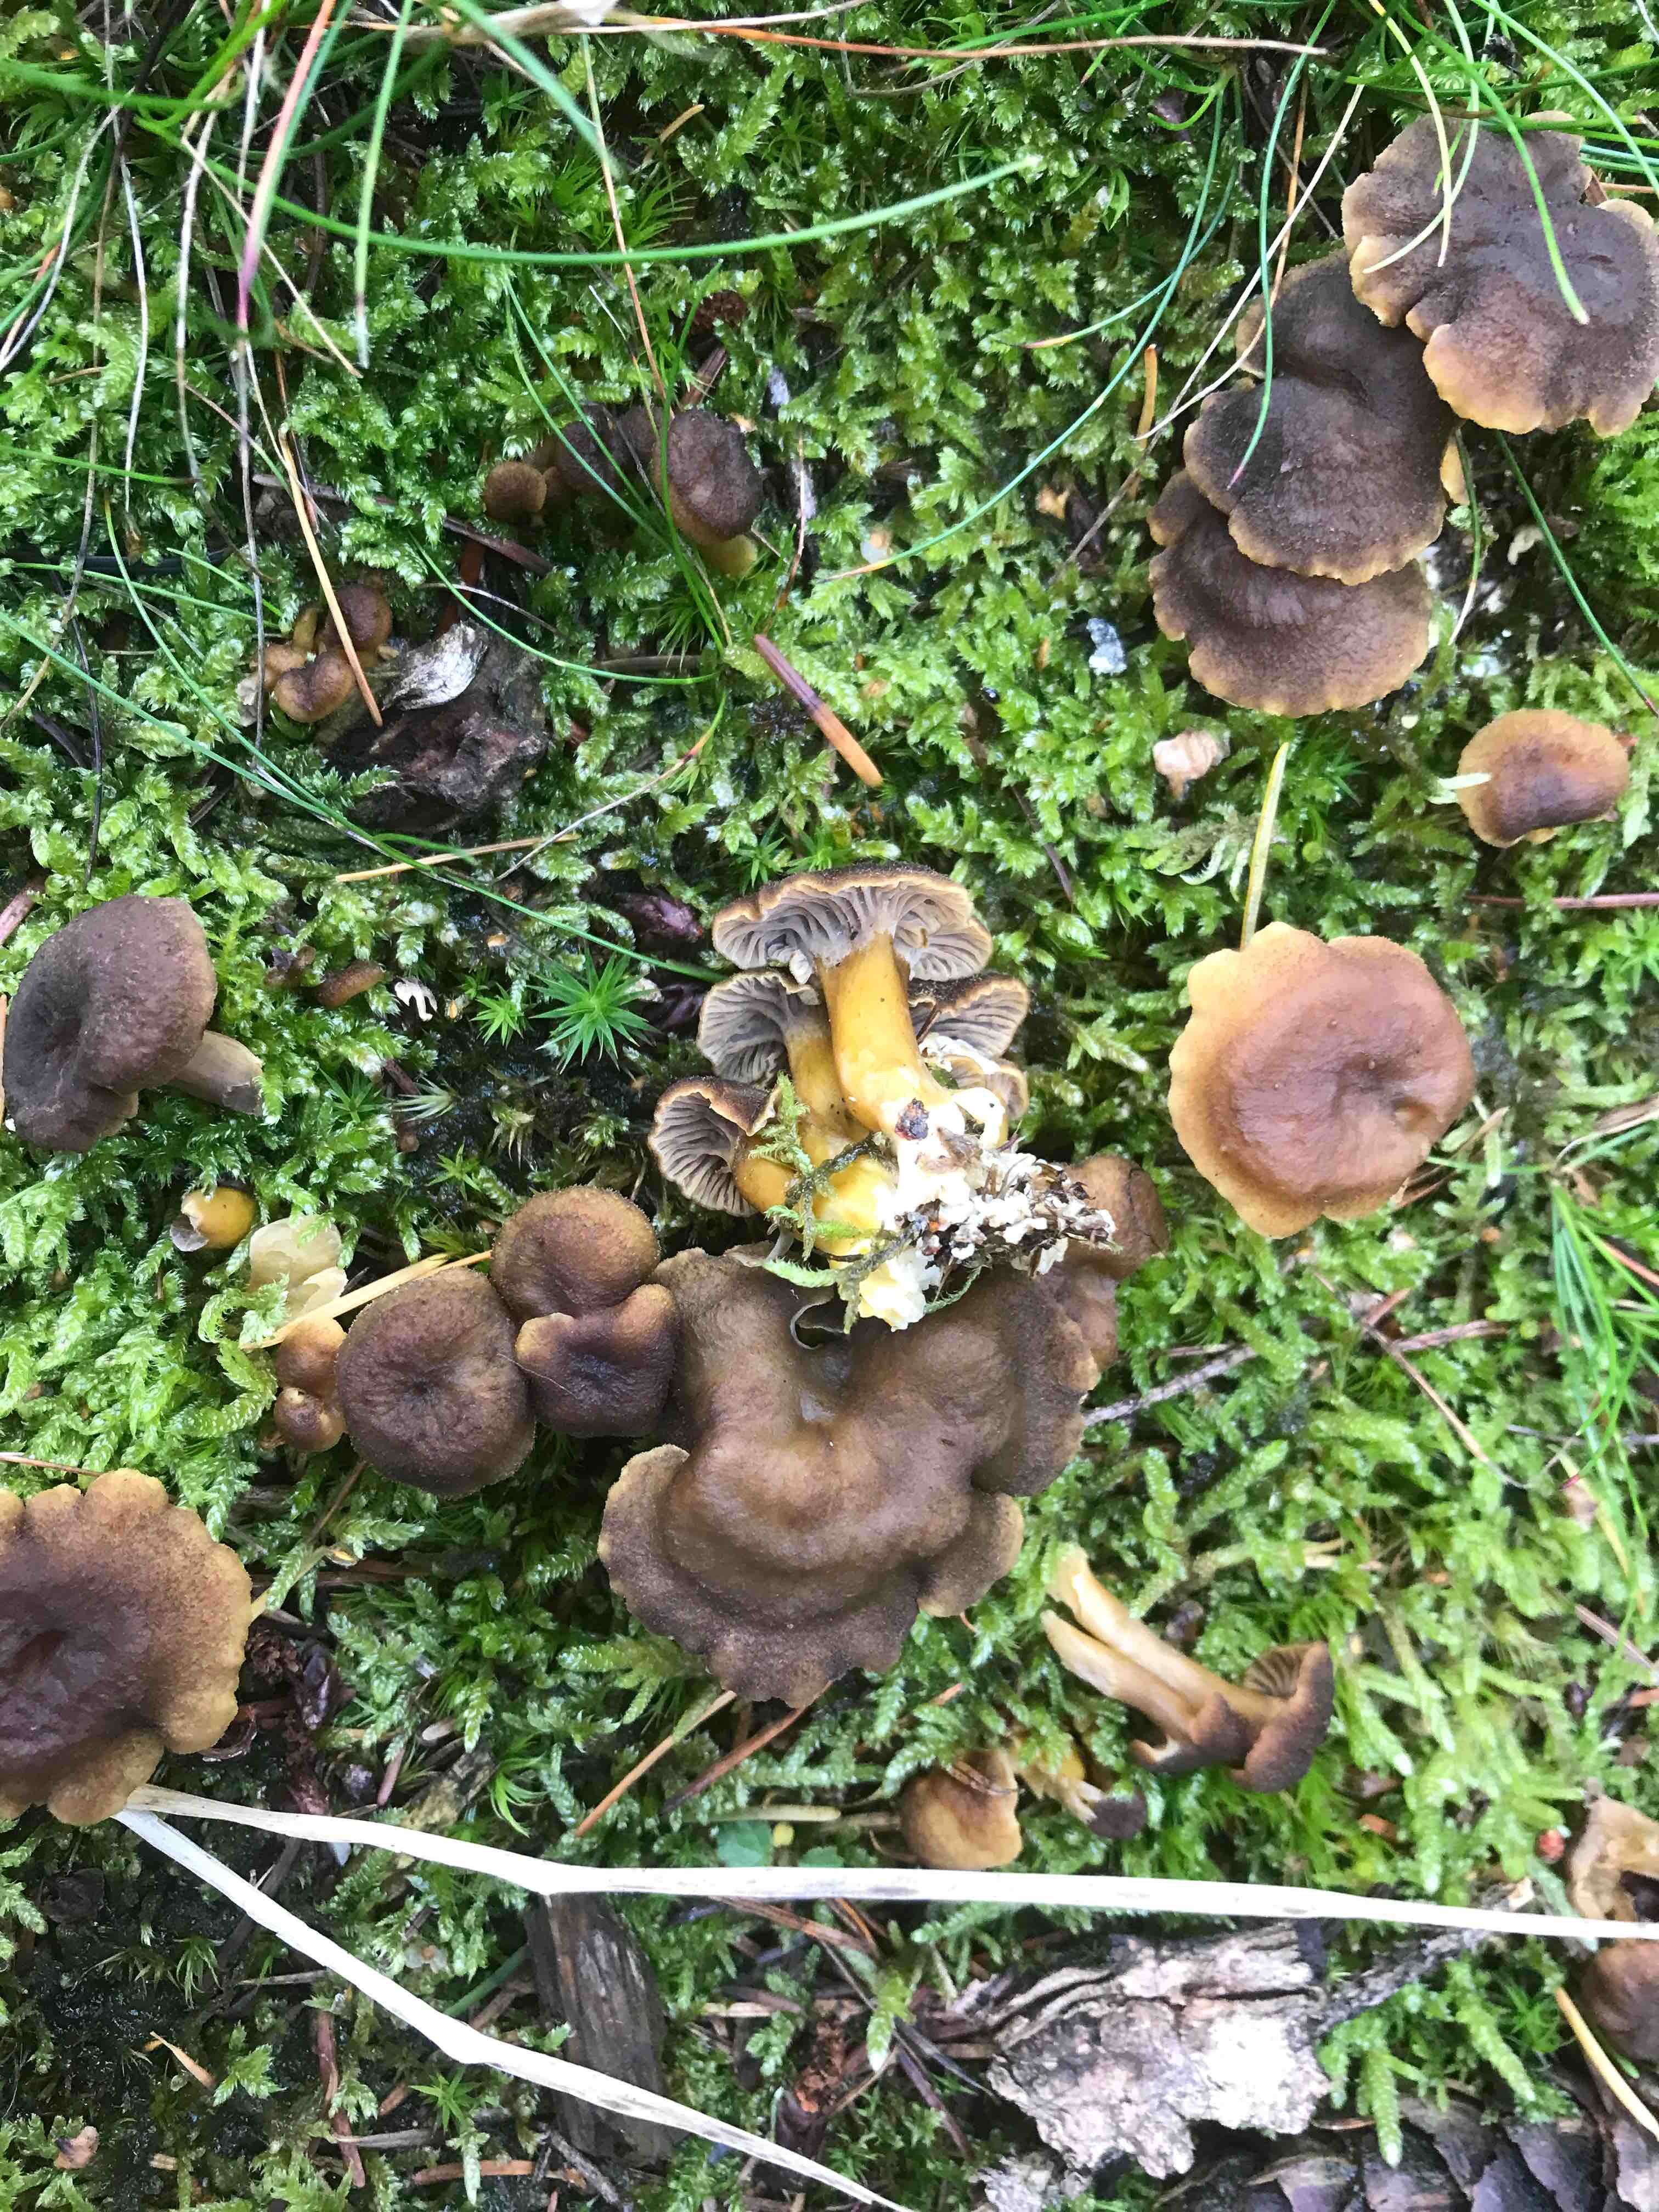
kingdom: Fungi
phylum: Basidiomycota
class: Agaricomycetes
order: Cantharellales
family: Hydnaceae
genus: Craterellus
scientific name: Craterellus tubaeformis
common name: tragt-kantarel
